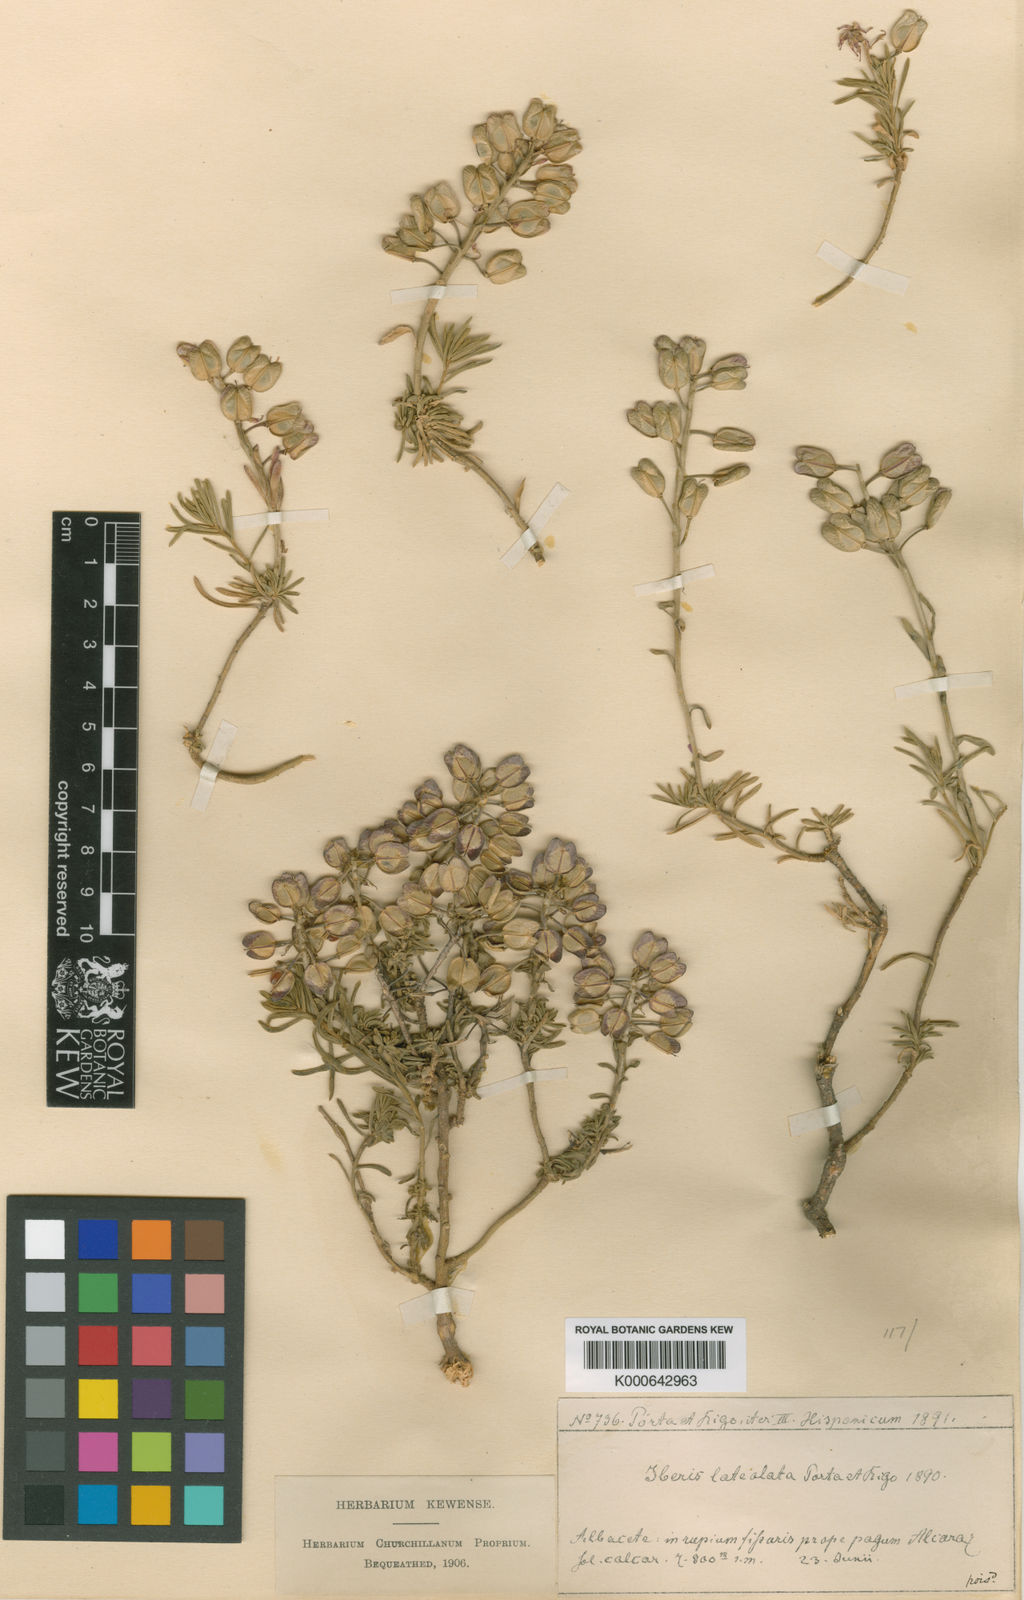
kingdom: Plantae
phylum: Tracheophyta
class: Magnoliopsida
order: Brassicales
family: Brassicaceae
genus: Iberis
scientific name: Iberis saxatilis
